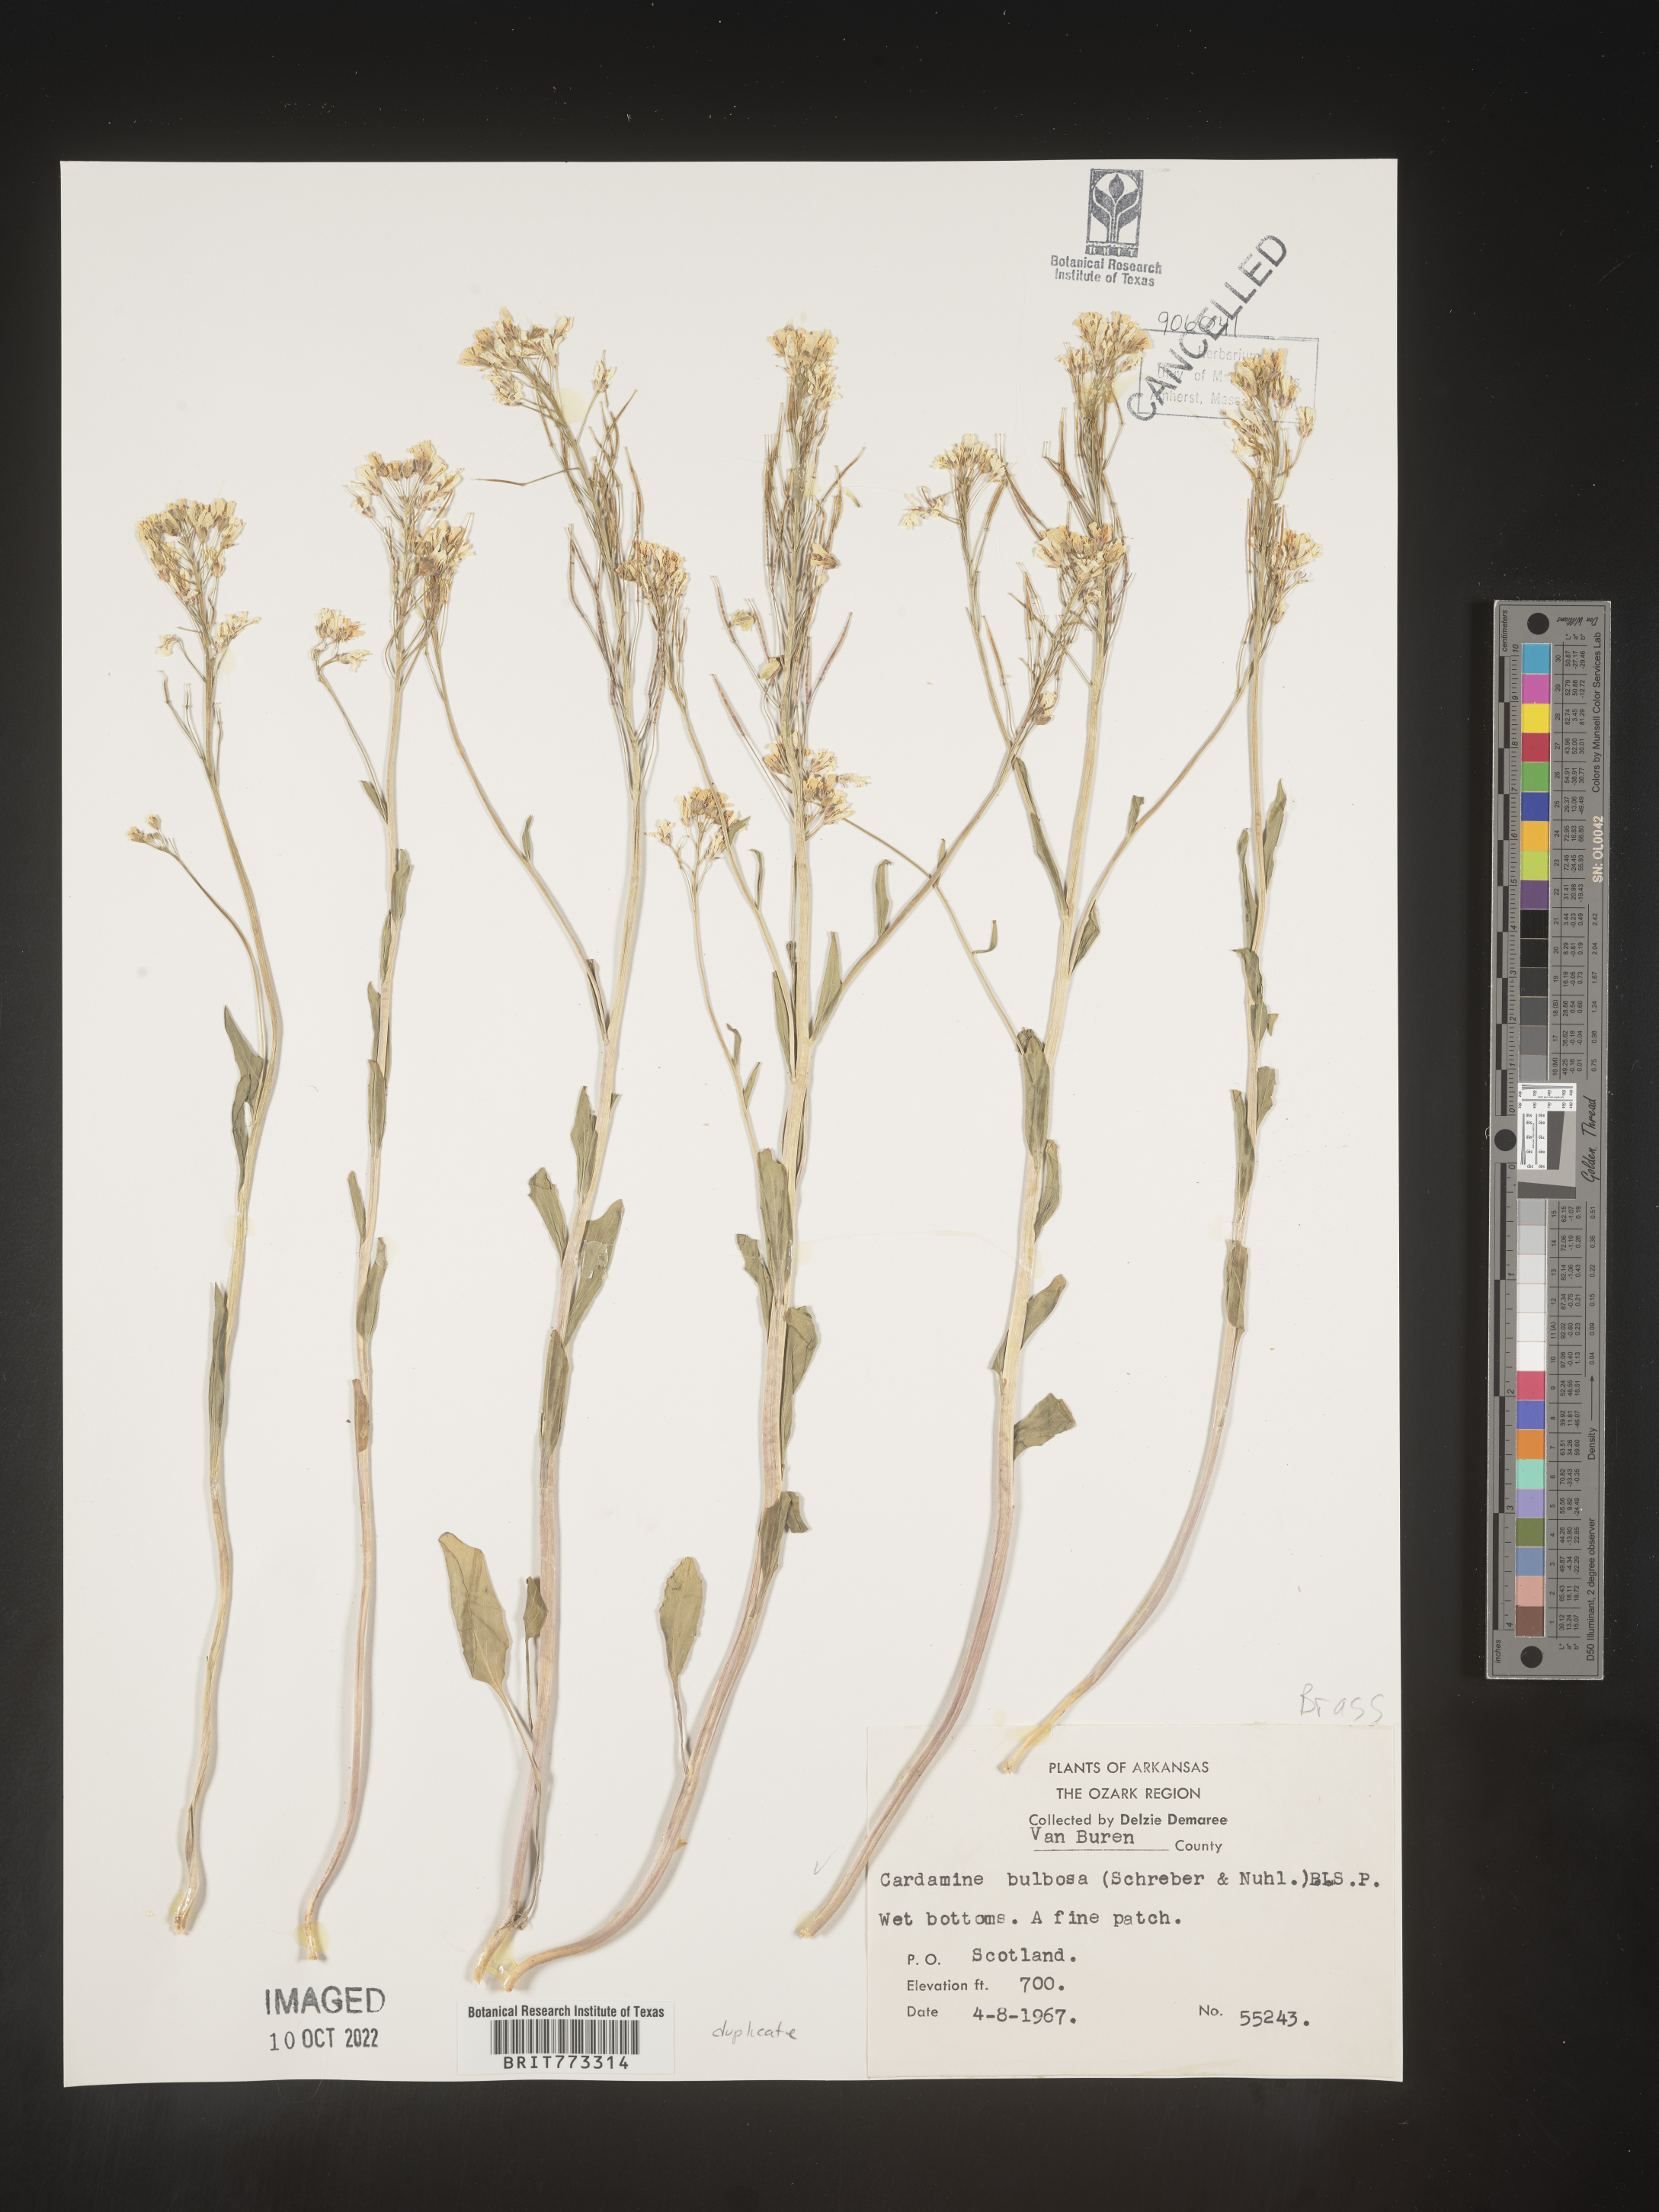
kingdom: Plantae
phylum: Tracheophyta
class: Magnoliopsida
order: Brassicales
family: Brassicaceae
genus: Cardamine
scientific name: Cardamine bulbosa
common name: Spring cress
